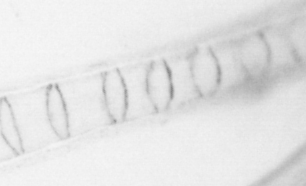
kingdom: Animalia
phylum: Chordata
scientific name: Chordata
